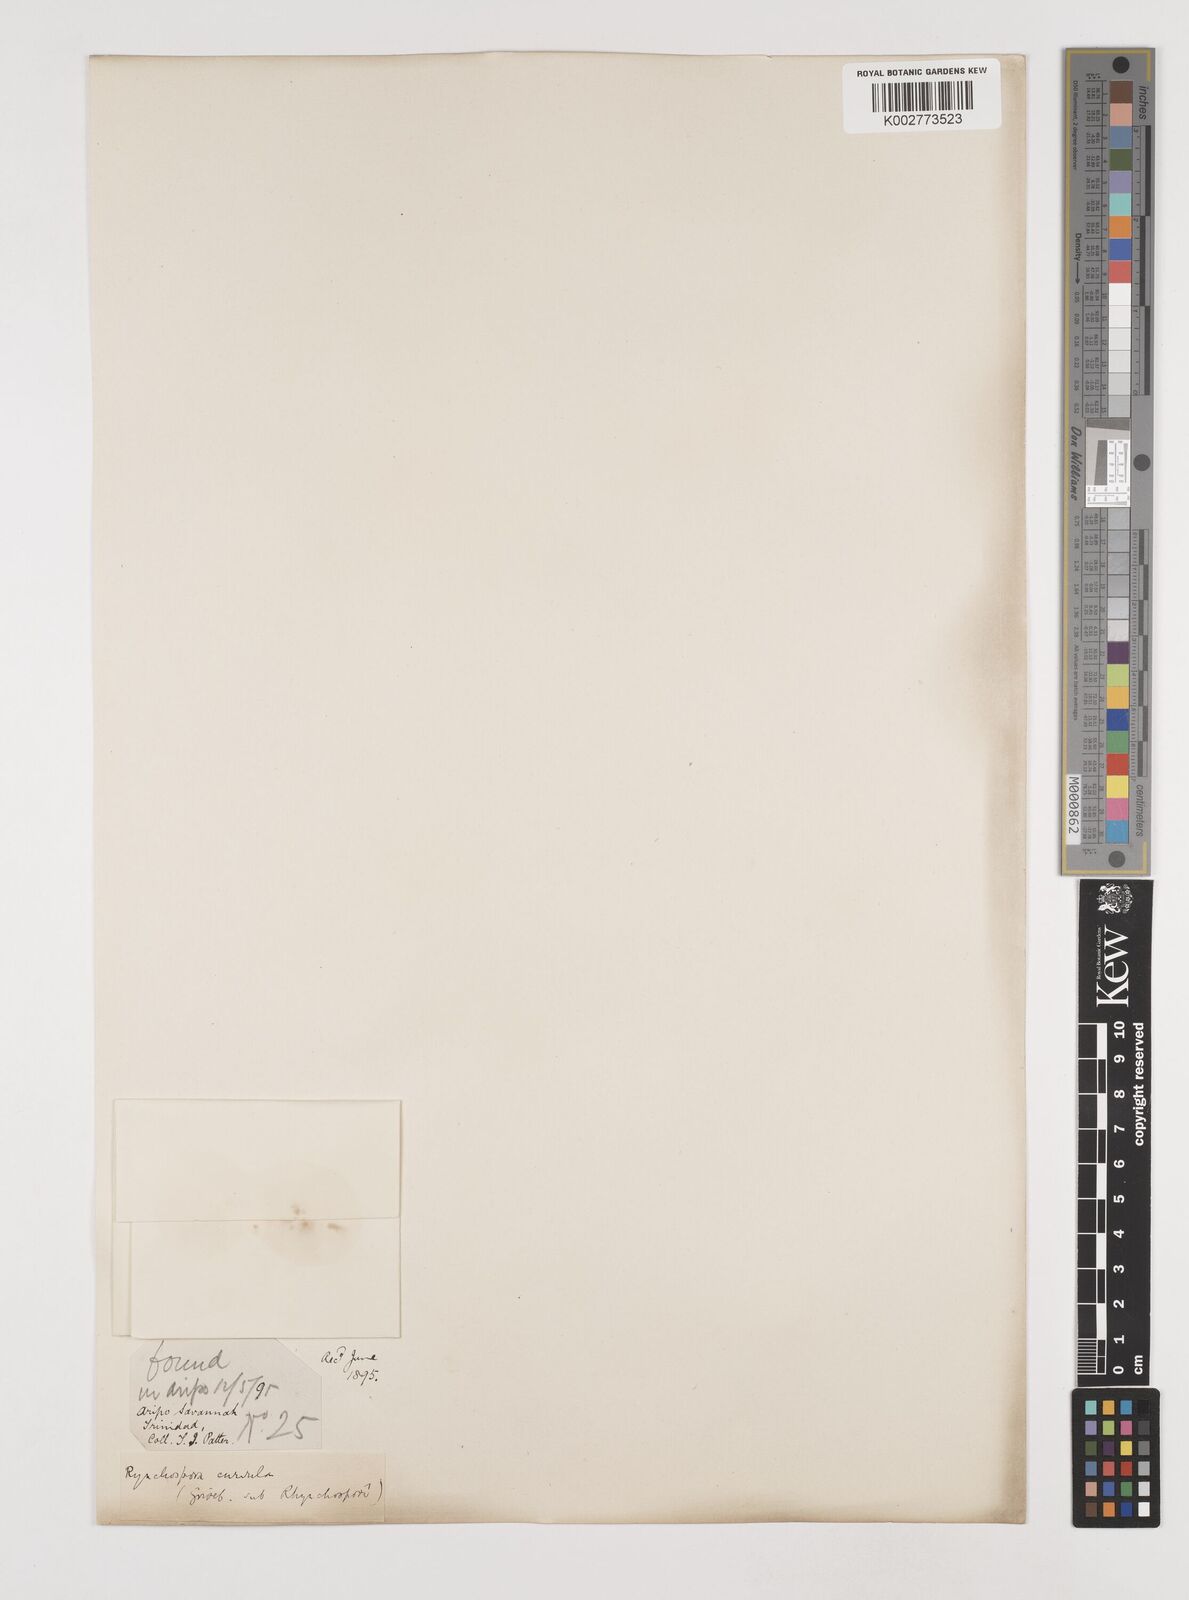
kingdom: Plantae
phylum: Tracheophyta
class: Liliopsida
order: Poales
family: Cyperaceae
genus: Rhynchospora
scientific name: Rhynchospora tenuis
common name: Quill beaksedge
